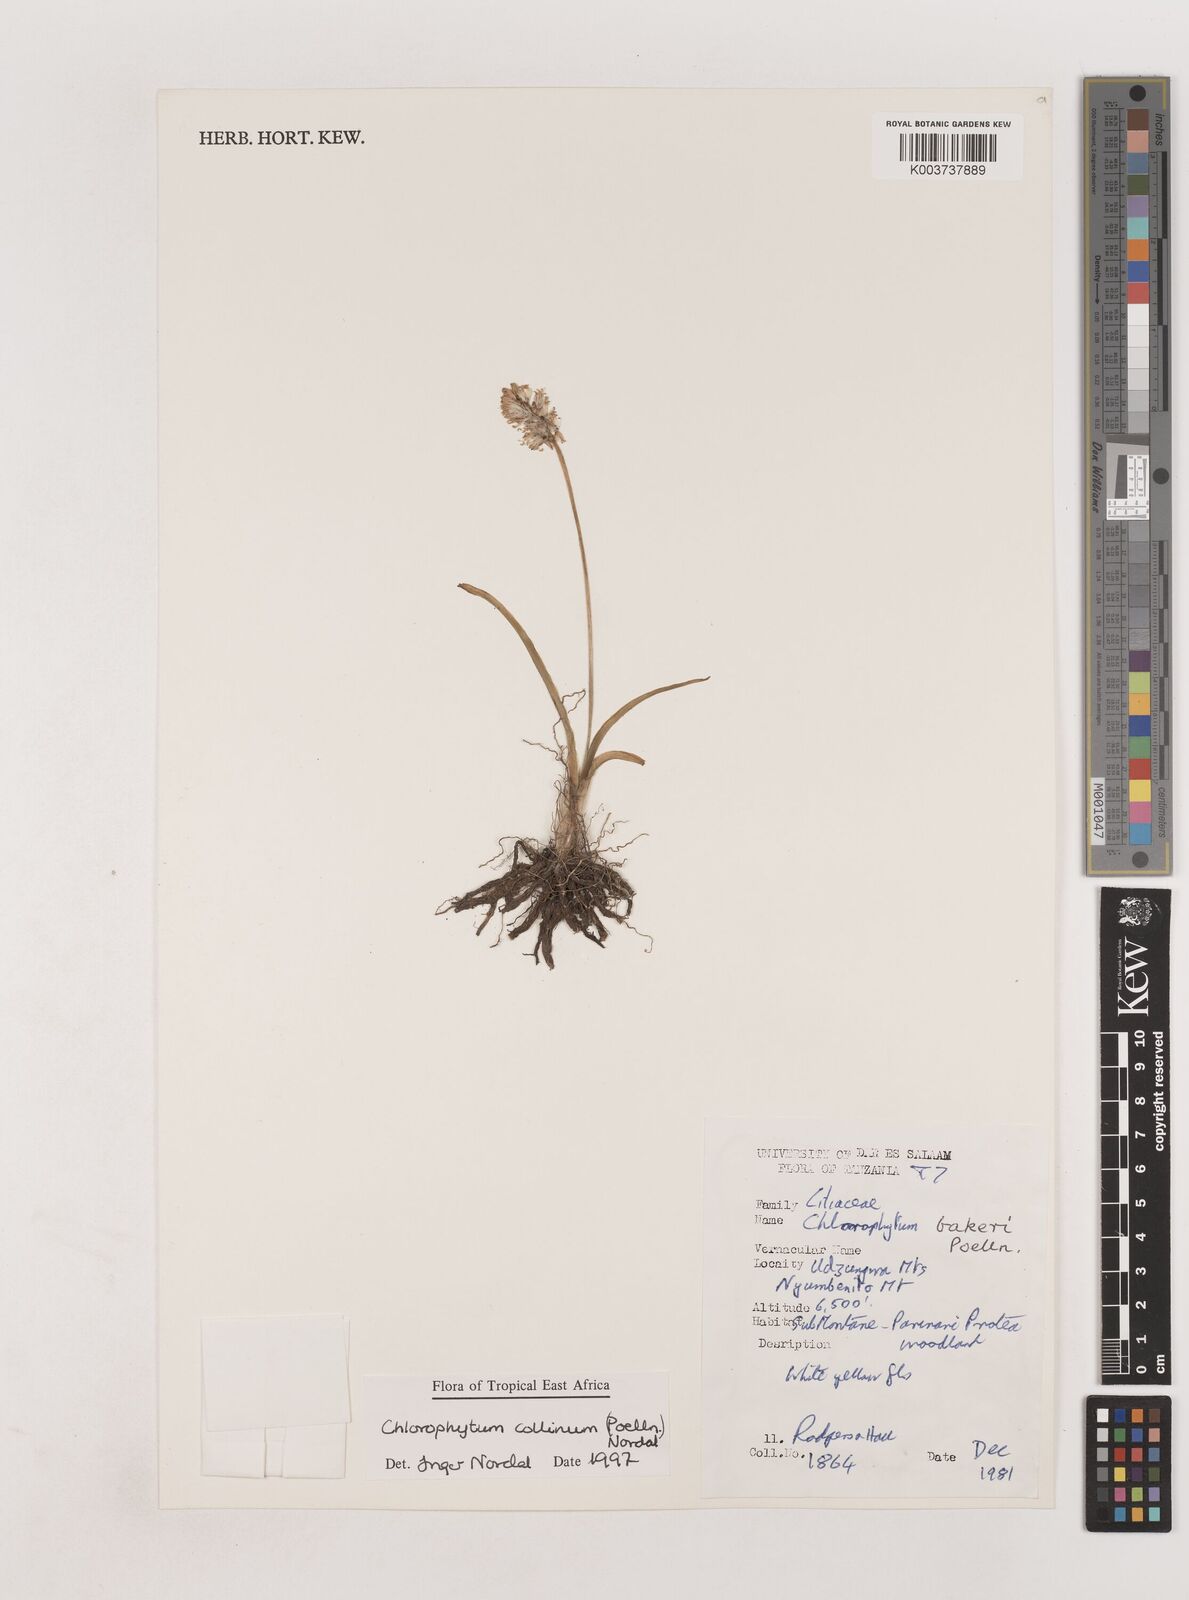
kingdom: Plantae
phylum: Tracheophyta
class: Liliopsida
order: Asparagales
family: Asparagaceae
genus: Chlorophytum
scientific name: Chlorophytum collinum
